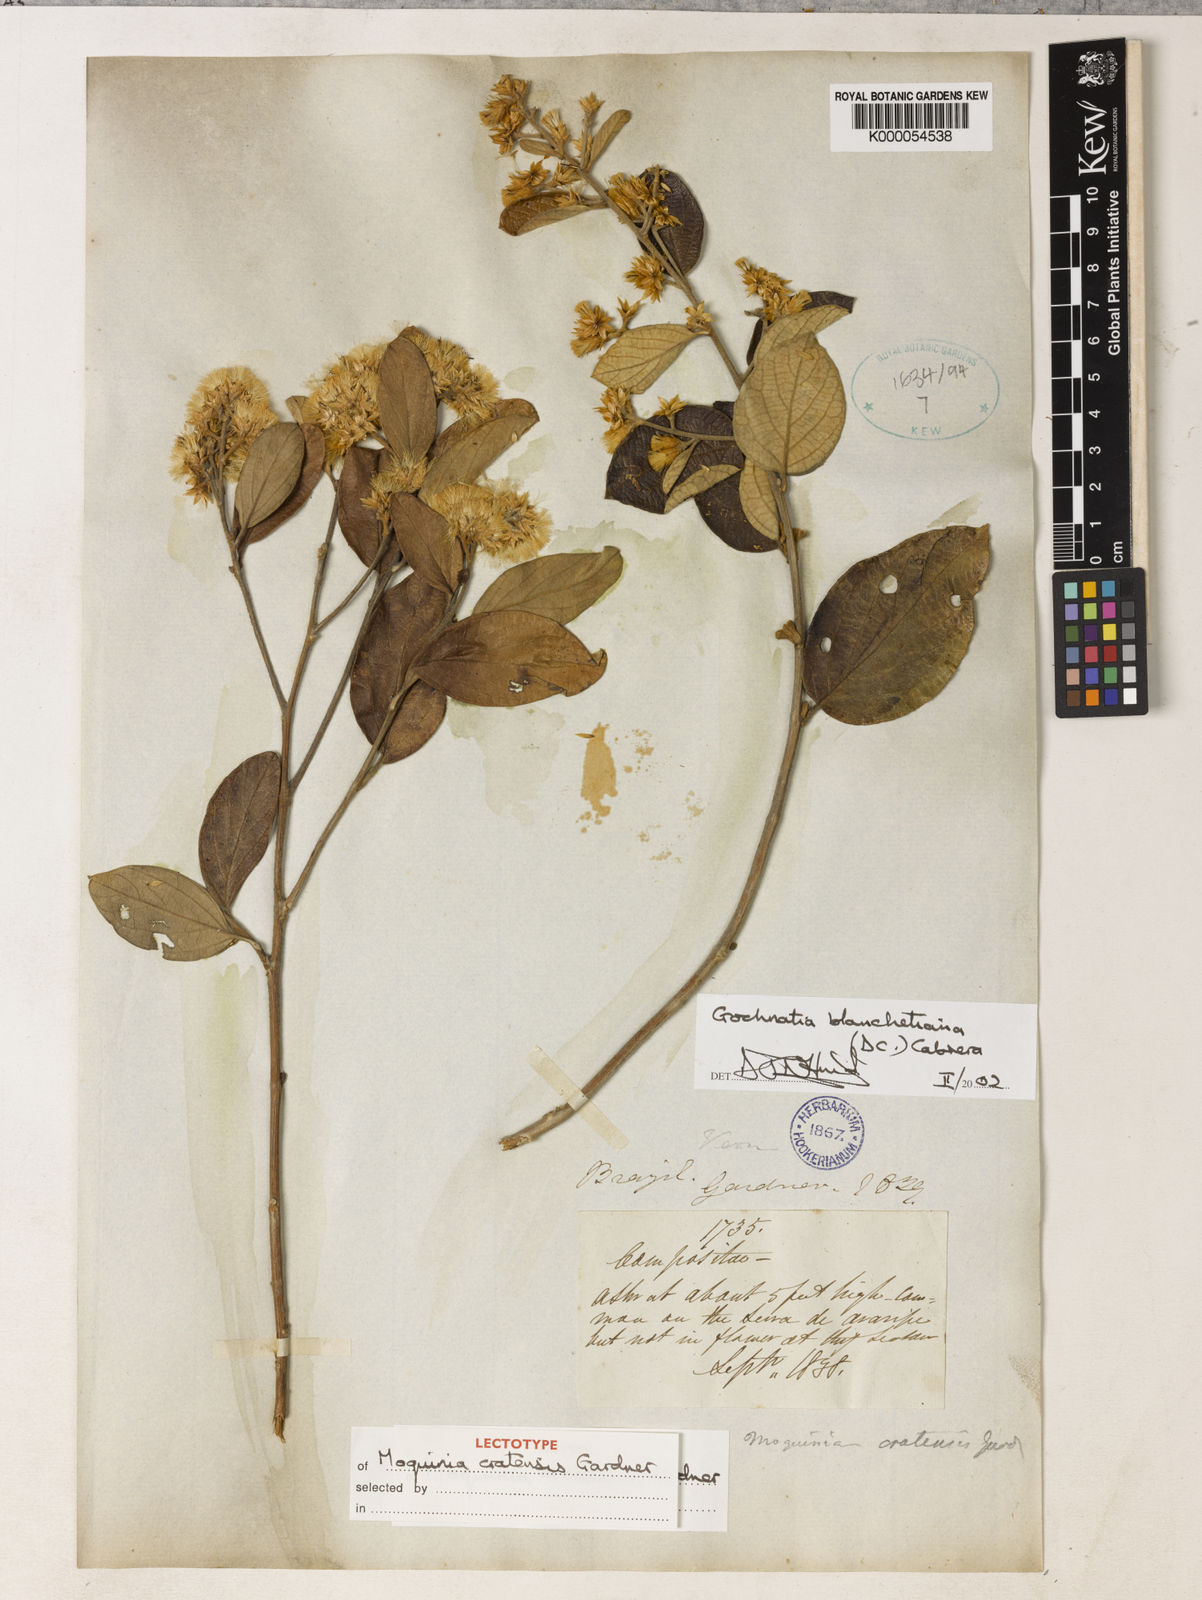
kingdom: Plantae
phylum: Tracheophyta
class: Magnoliopsida
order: Asterales
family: Asteraceae
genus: Moquiniastrum
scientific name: Moquiniastrum blanchetianum
